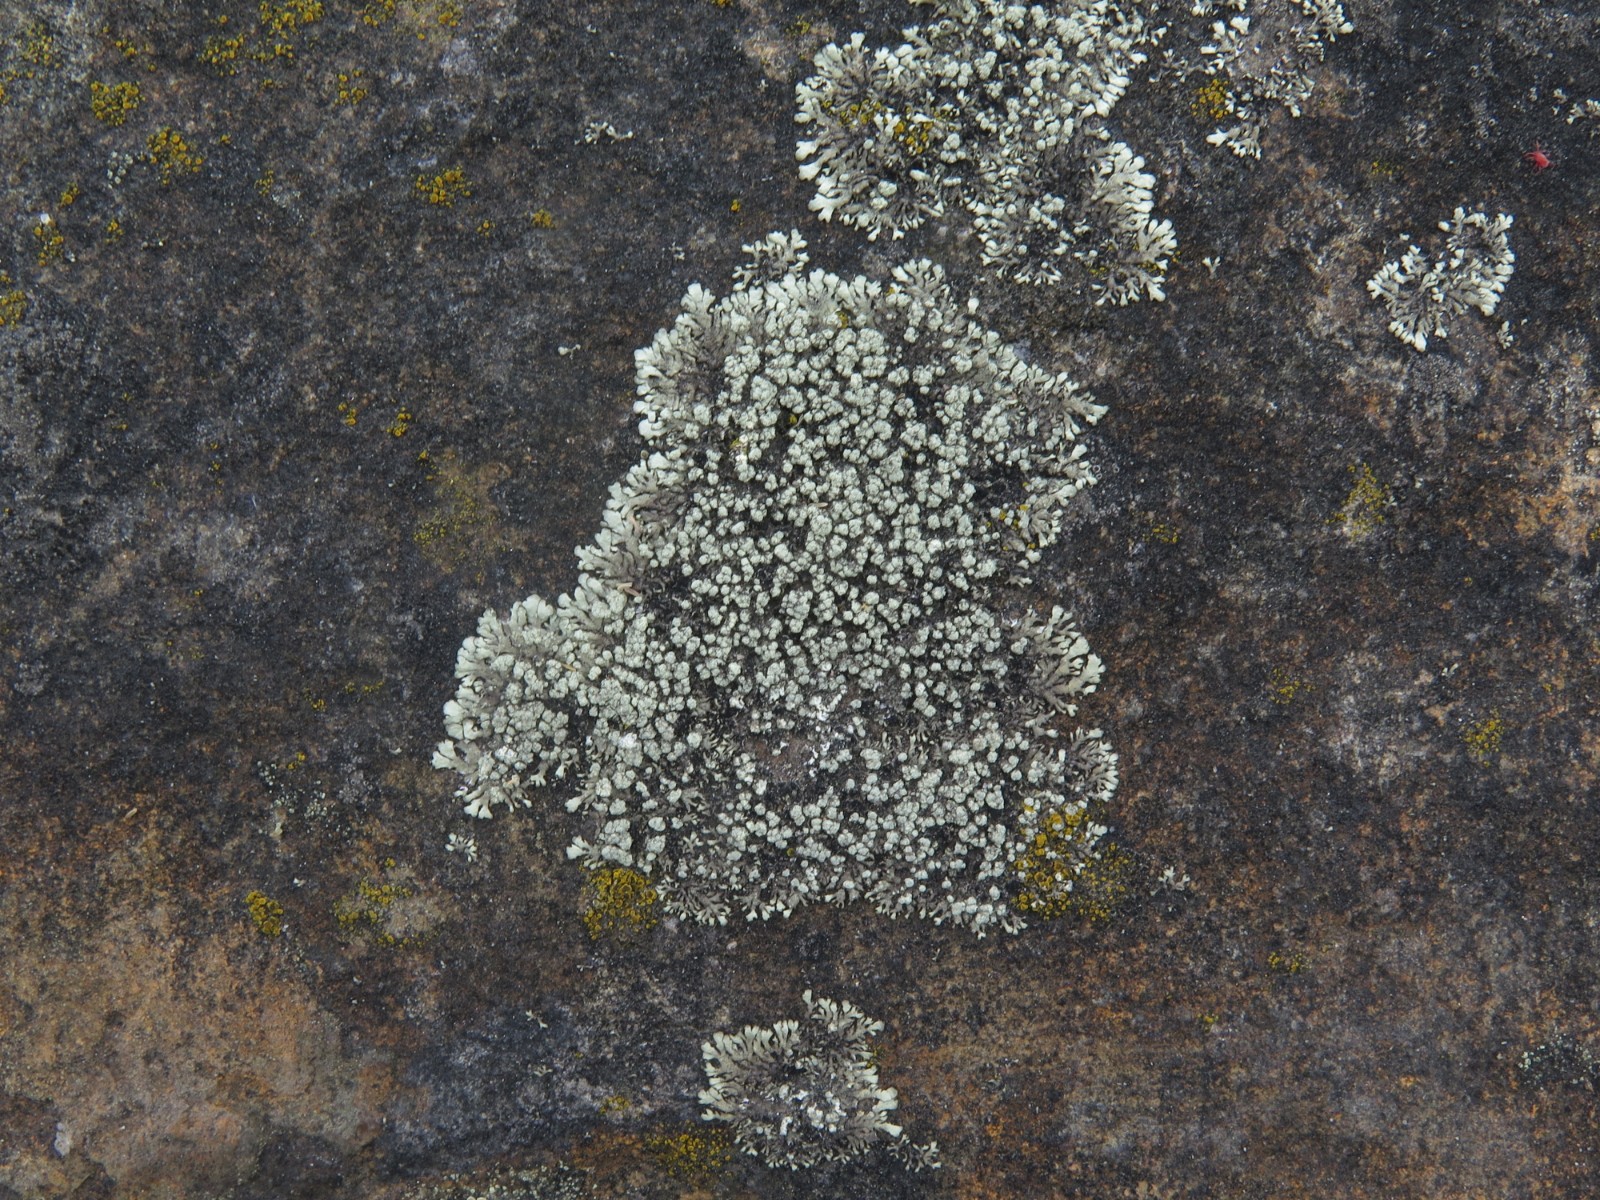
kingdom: Fungi
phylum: Ascomycota
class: Lecanoromycetes
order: Lecanorales
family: Parmeliaceae
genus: Xanthoparmelia
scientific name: Xanthoparmelia mougeotii
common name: liden skållav
